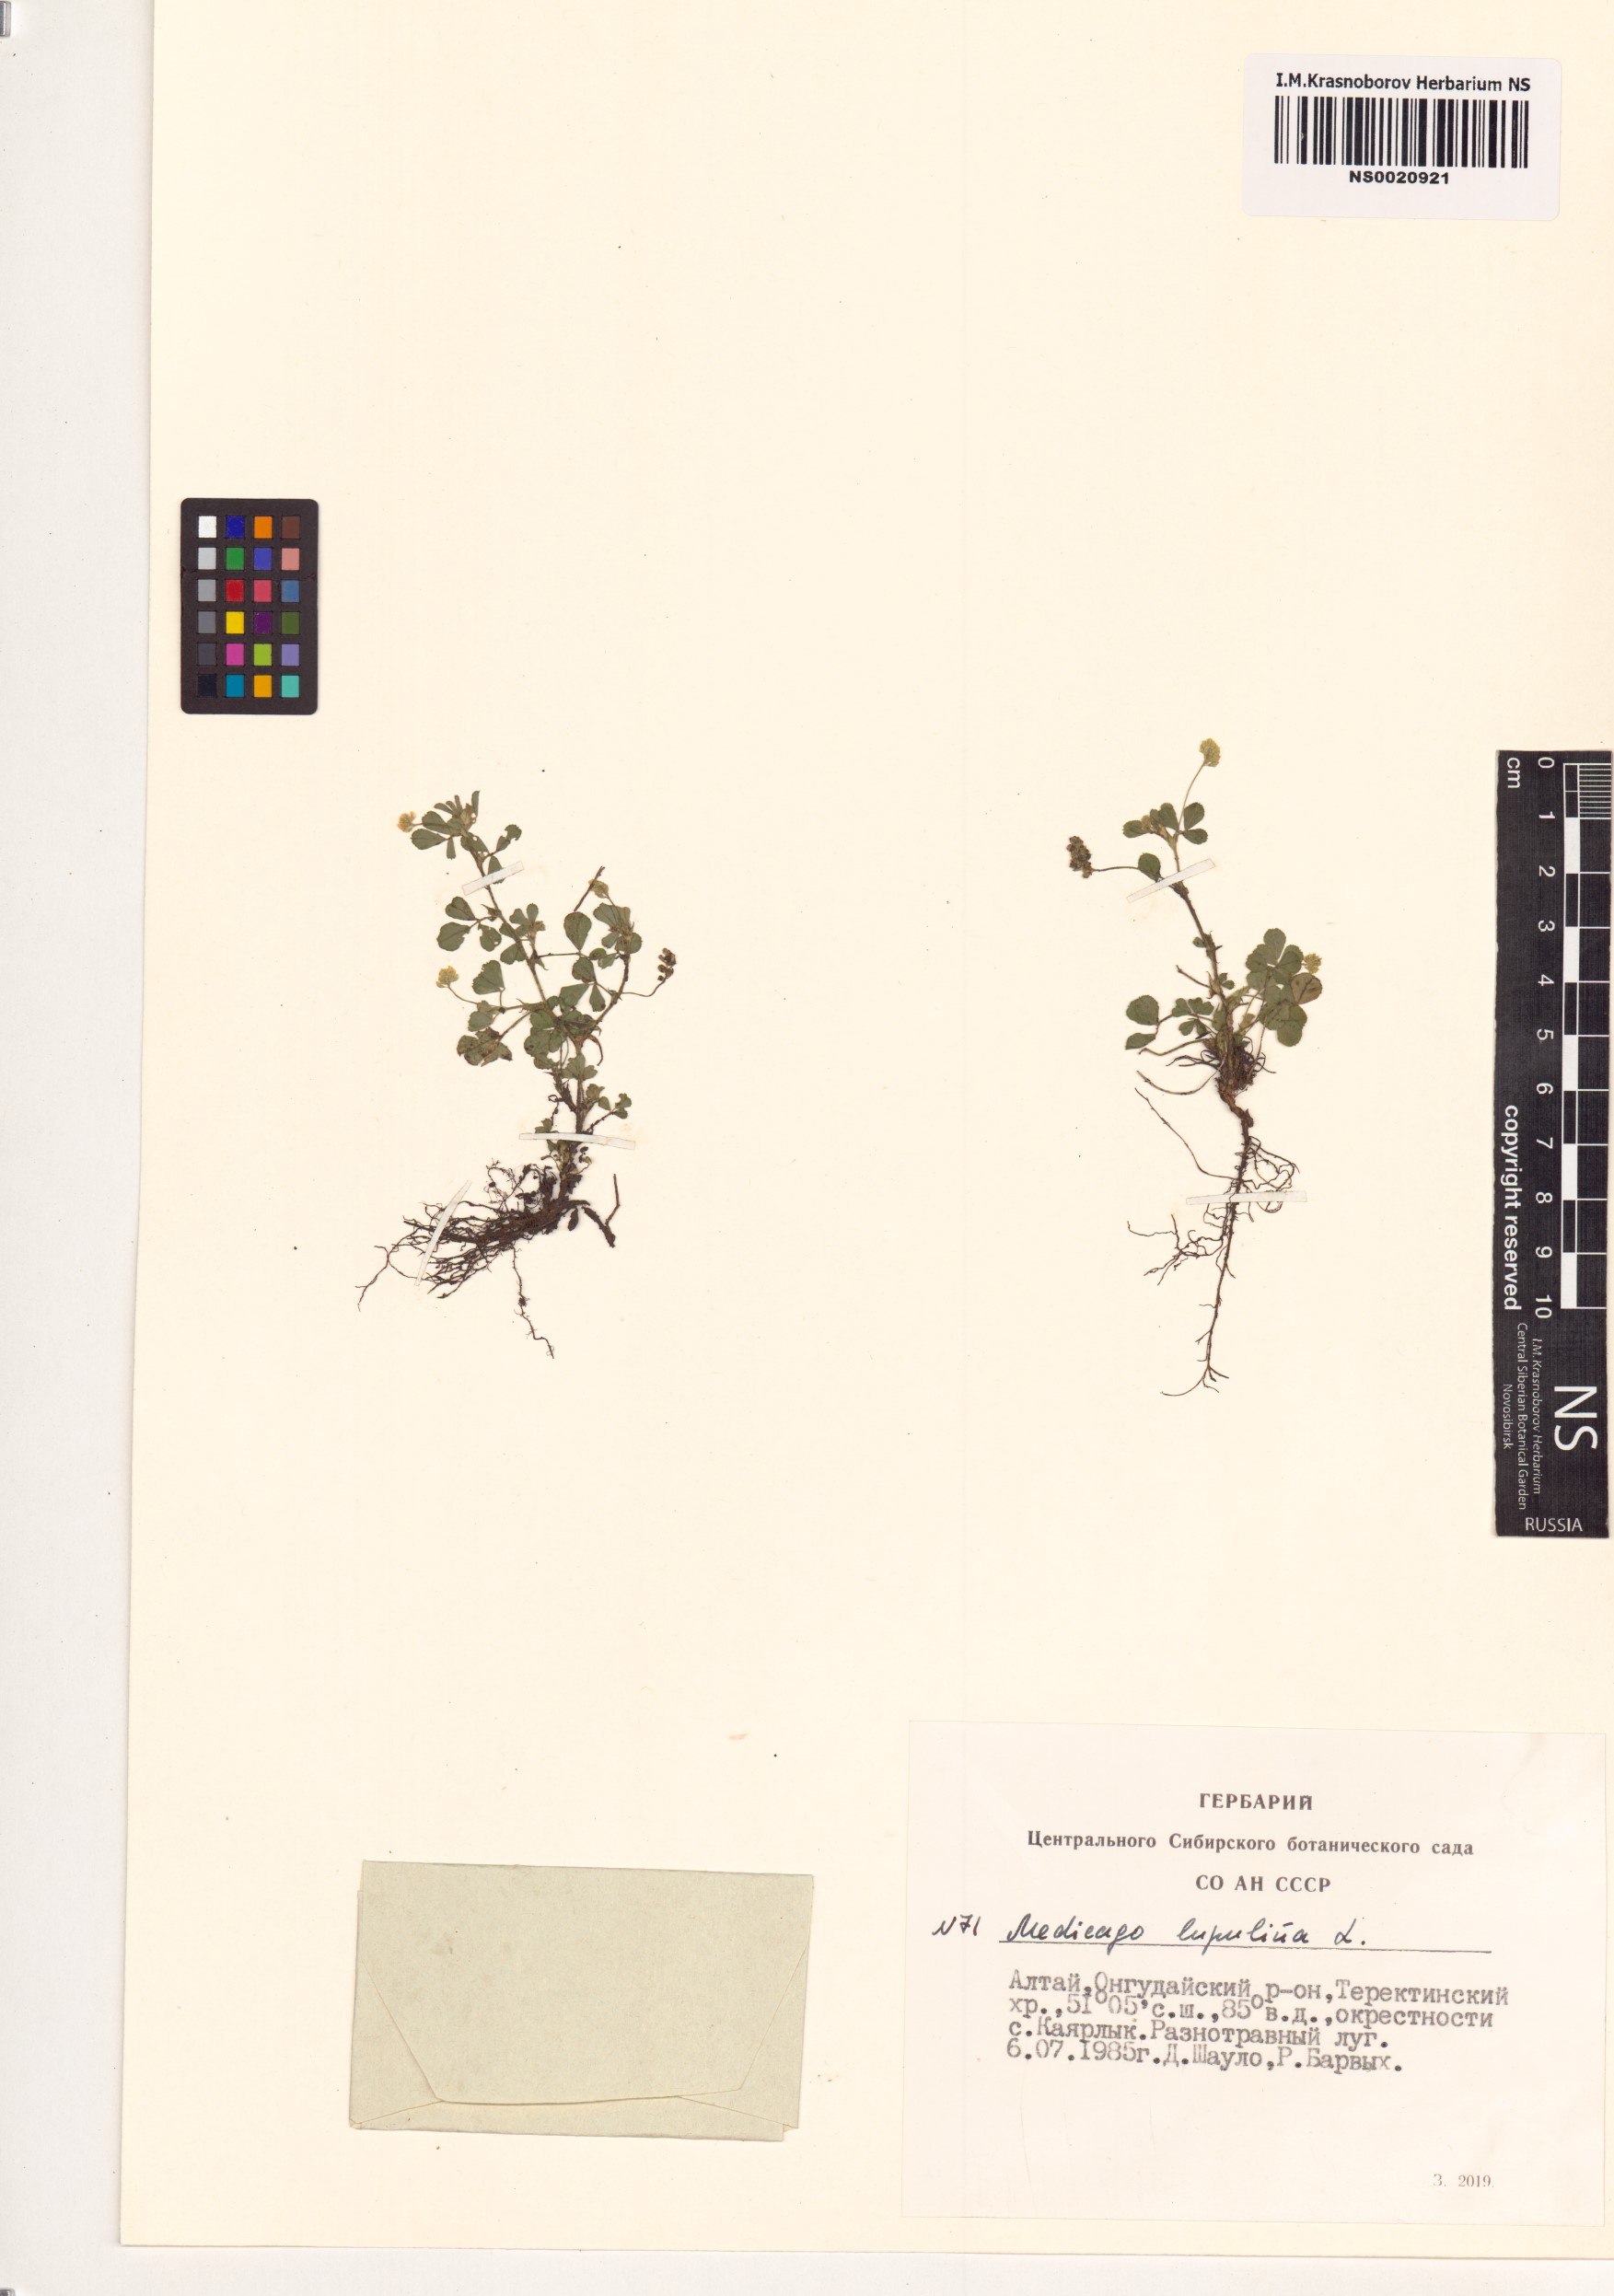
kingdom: Plantae
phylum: Tracheophyta
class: Magnoliopsida
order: Fabales
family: Fabaceae
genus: Medicago
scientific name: Medicago lupulina
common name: Black medick
